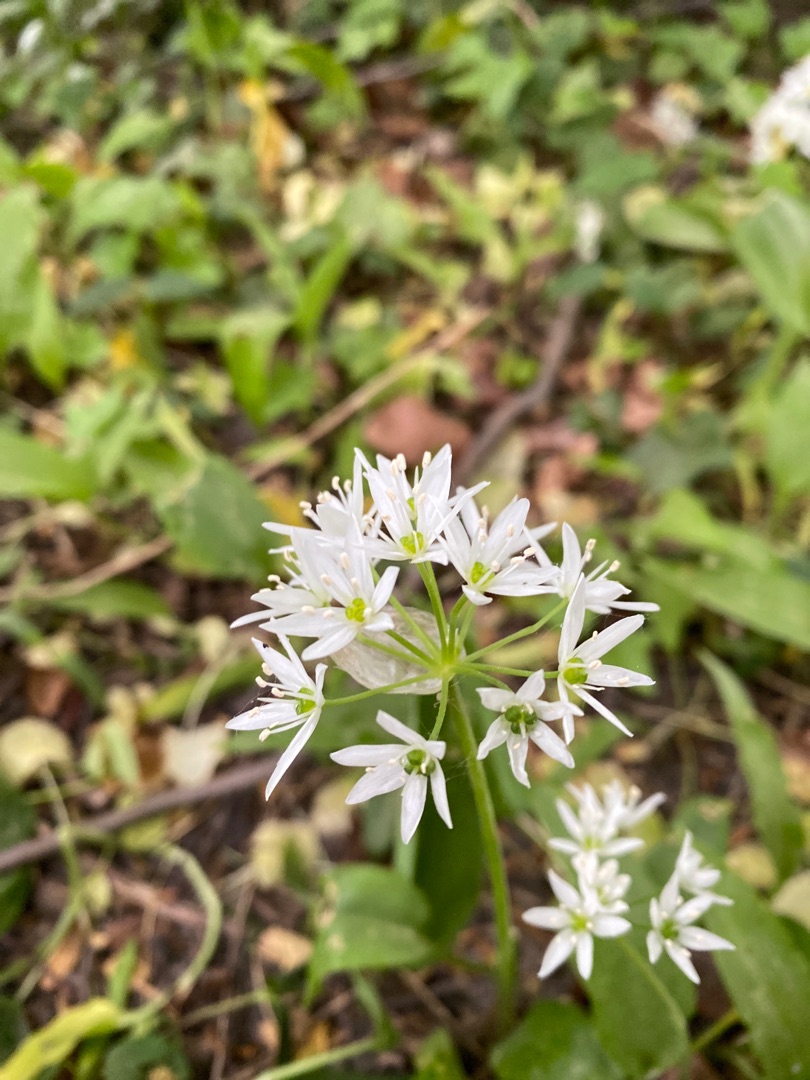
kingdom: Plantae
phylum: Tracheophyta
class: Liliopsida
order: Asparagales
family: Amaryllidaceae
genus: Allium
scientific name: Allium ursinum
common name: Rams-løg
